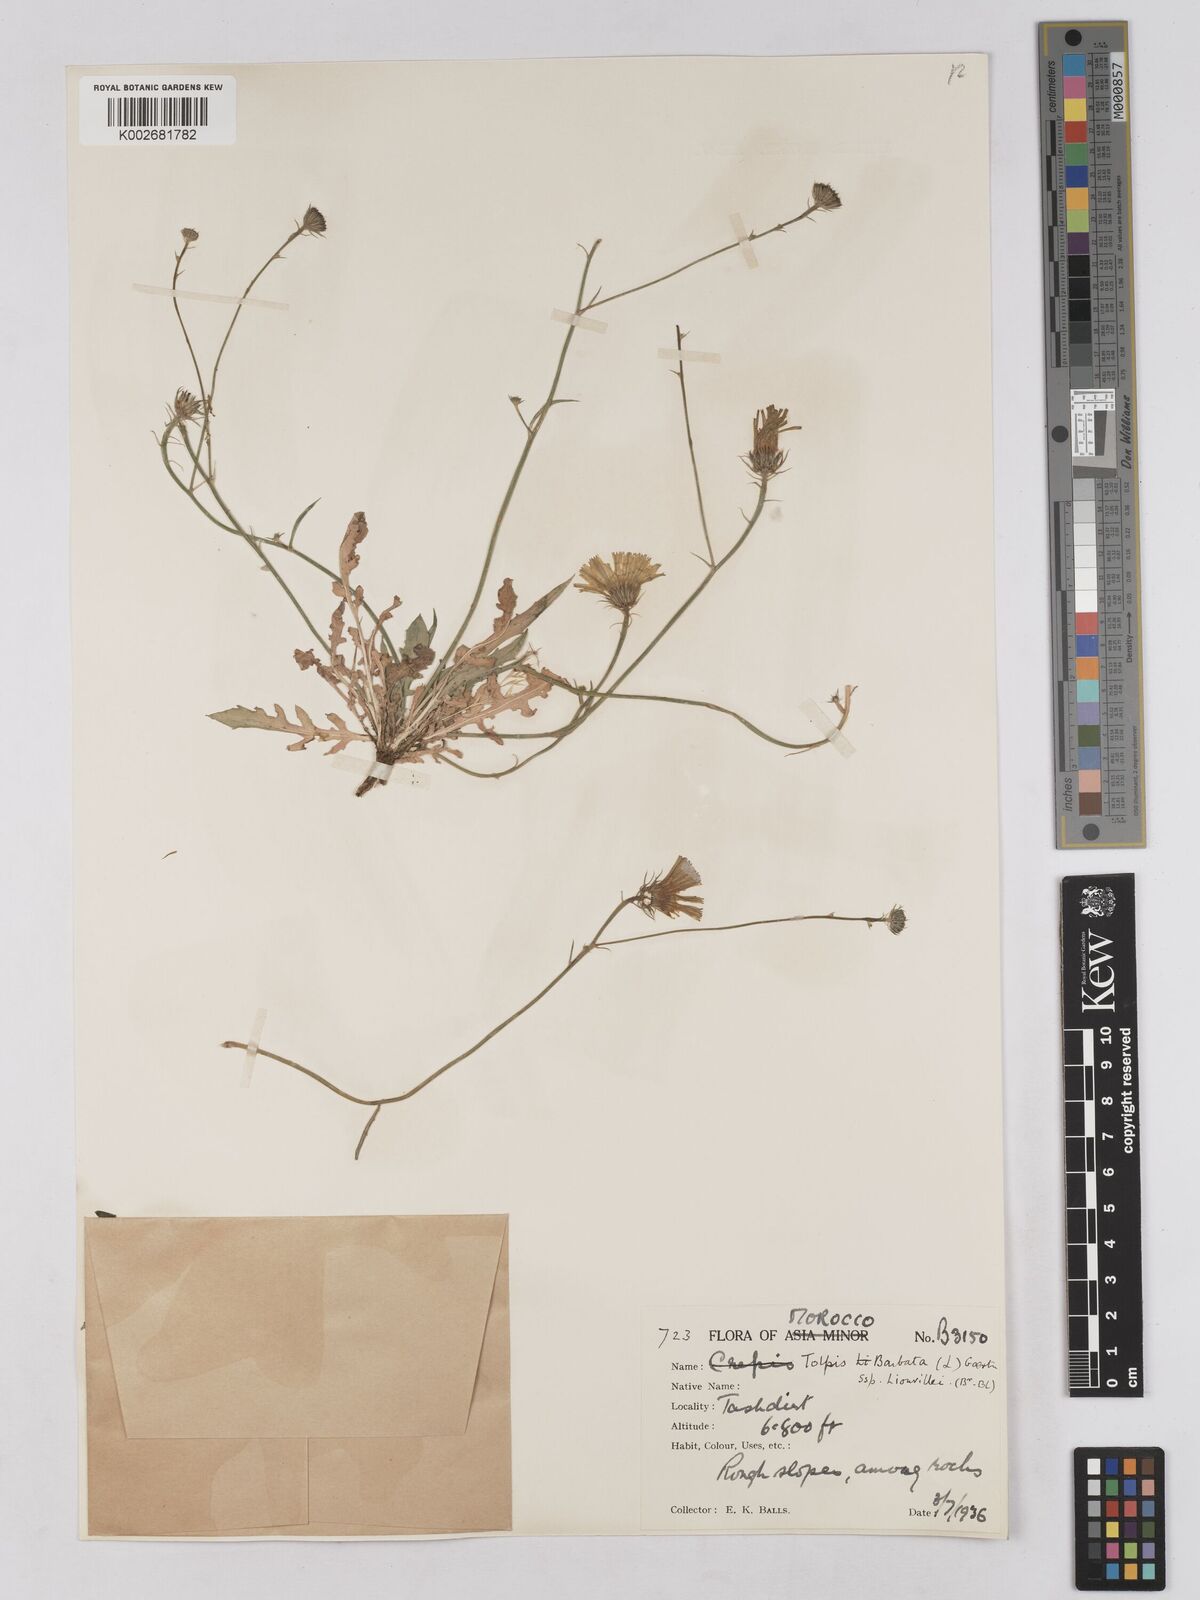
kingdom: Plantae
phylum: Tracheophyta
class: Magnoliopsida
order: Asterales
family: Asteraceae
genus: Tolpis
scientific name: Tolpis liouvillei
